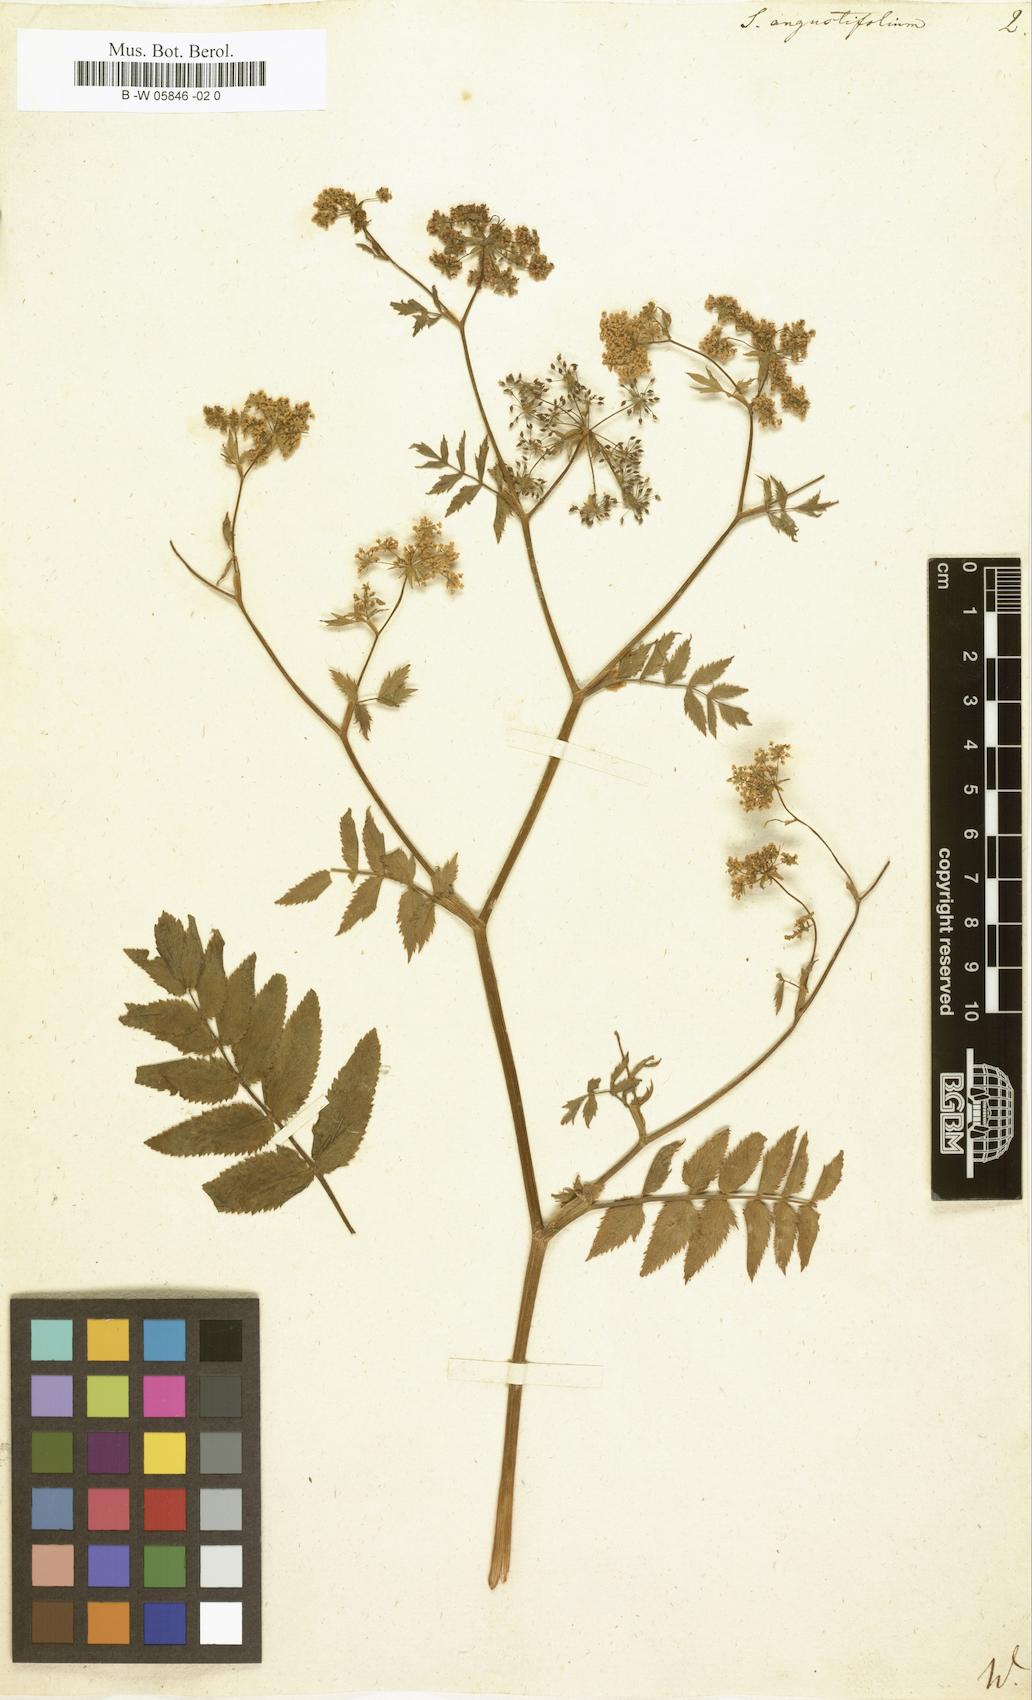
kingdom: Plantae
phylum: Tracheophyta
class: Magnoliopsida
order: Apiales
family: Apiaceae
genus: Berula
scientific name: Berula erecta
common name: Lesser water-parsnip
